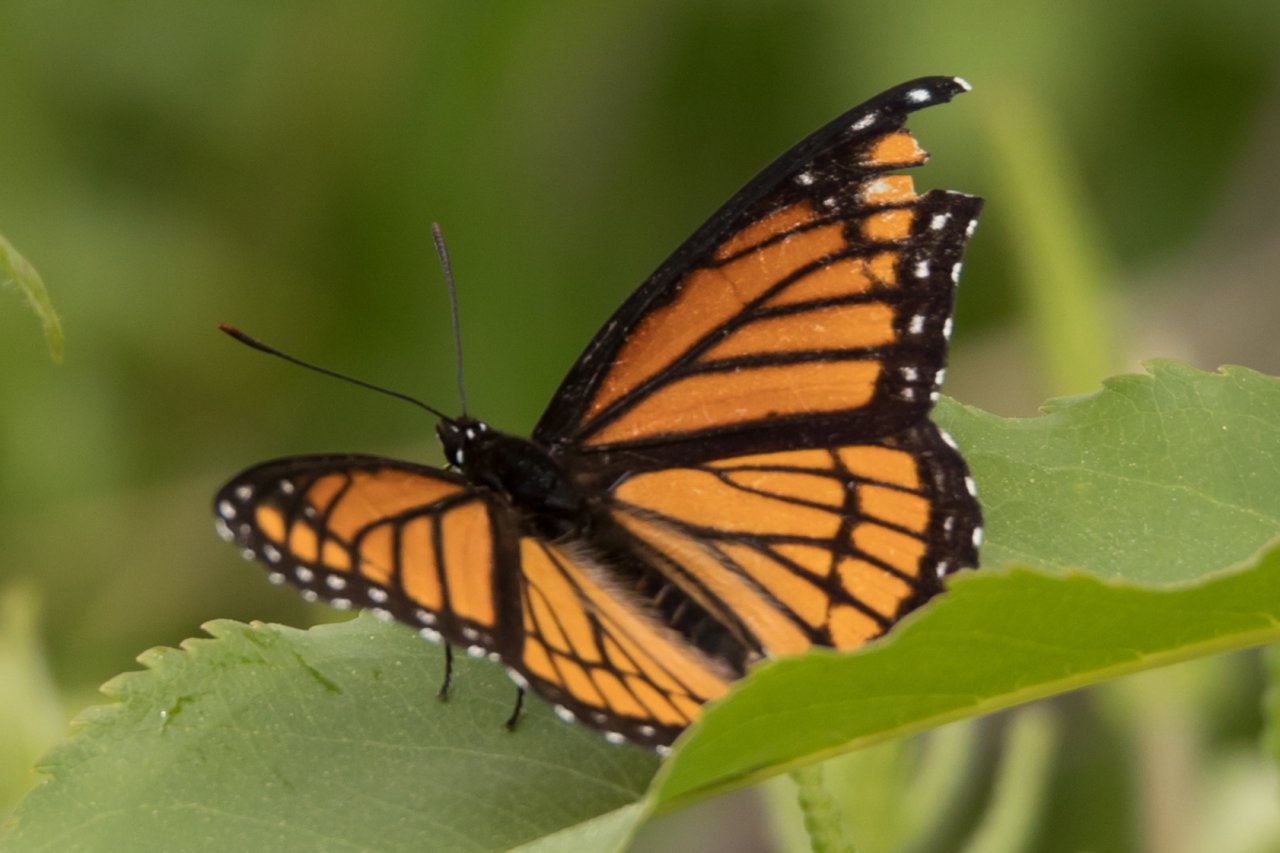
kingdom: Animalia
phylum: Arthropoda
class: Insecta
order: Lepidoptera
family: Nymphalidae
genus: Limenitis
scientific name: Limenitis archippus
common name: Viceroy
